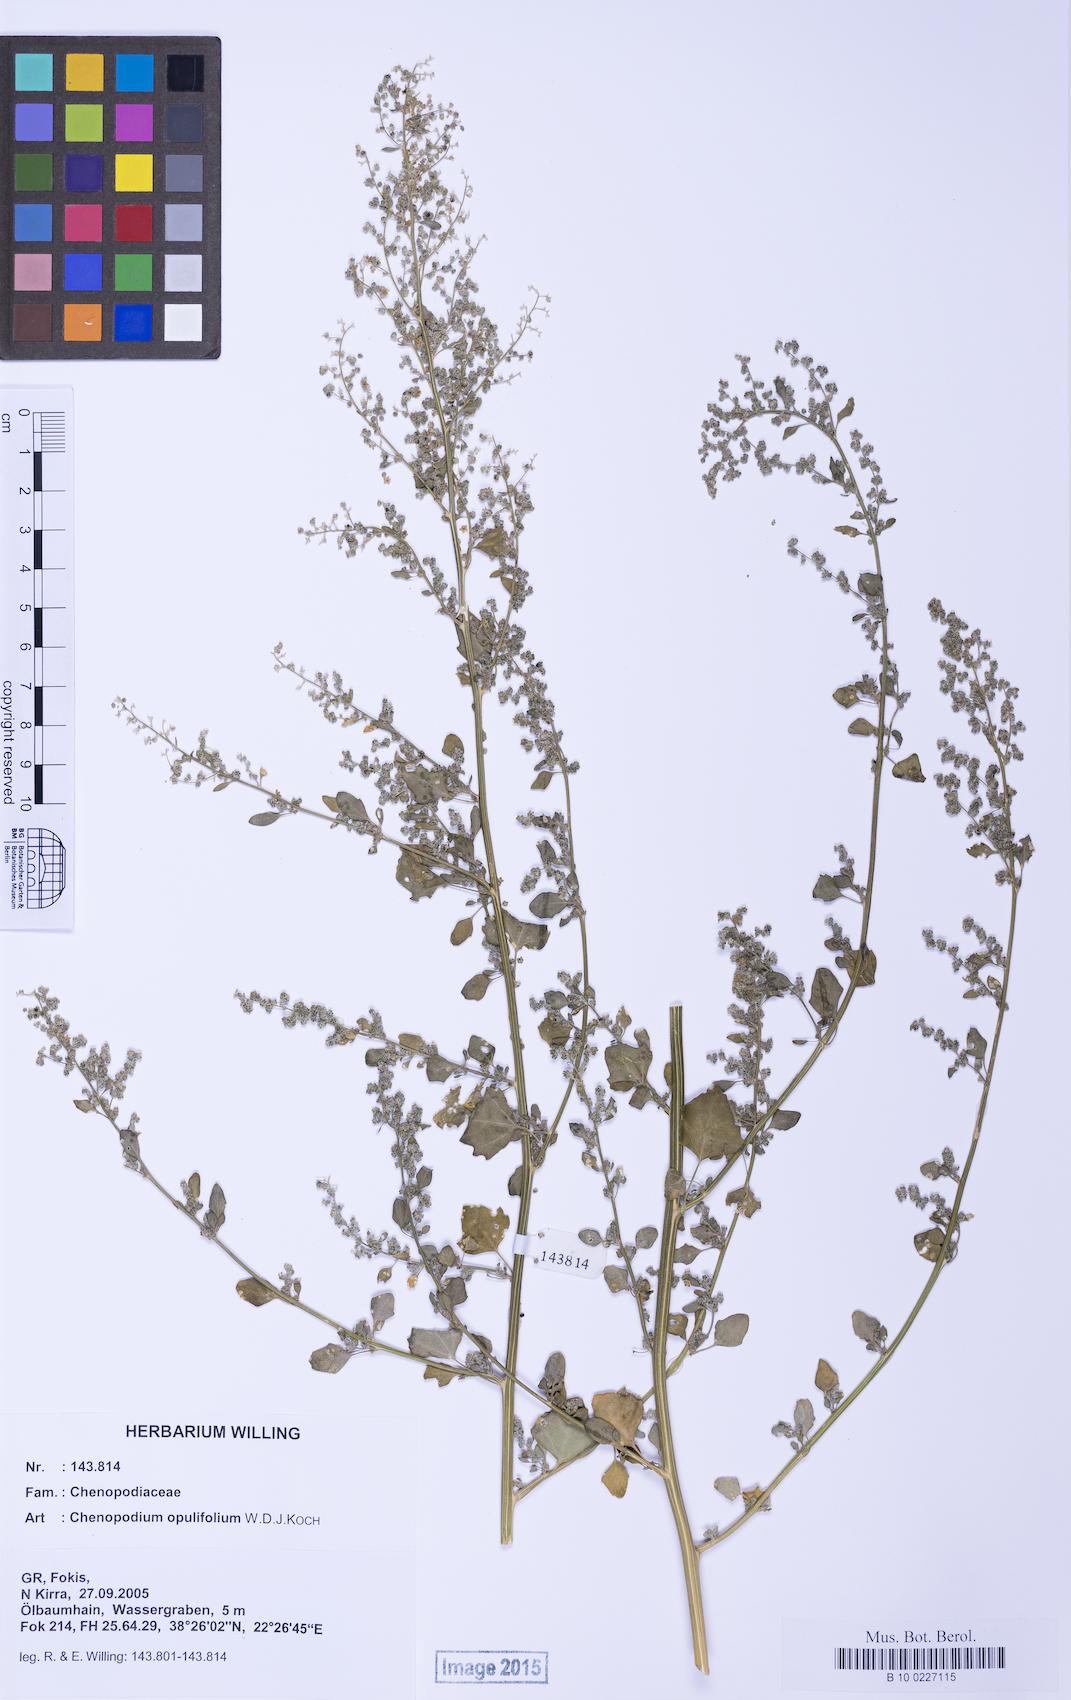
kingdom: Plantae
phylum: Tracheophyta
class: Magnoliopsida
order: Caryophyllales
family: Amaranthaceae
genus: Chenopodium
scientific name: Chenopodium opulifolium
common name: Grey goosefoot
